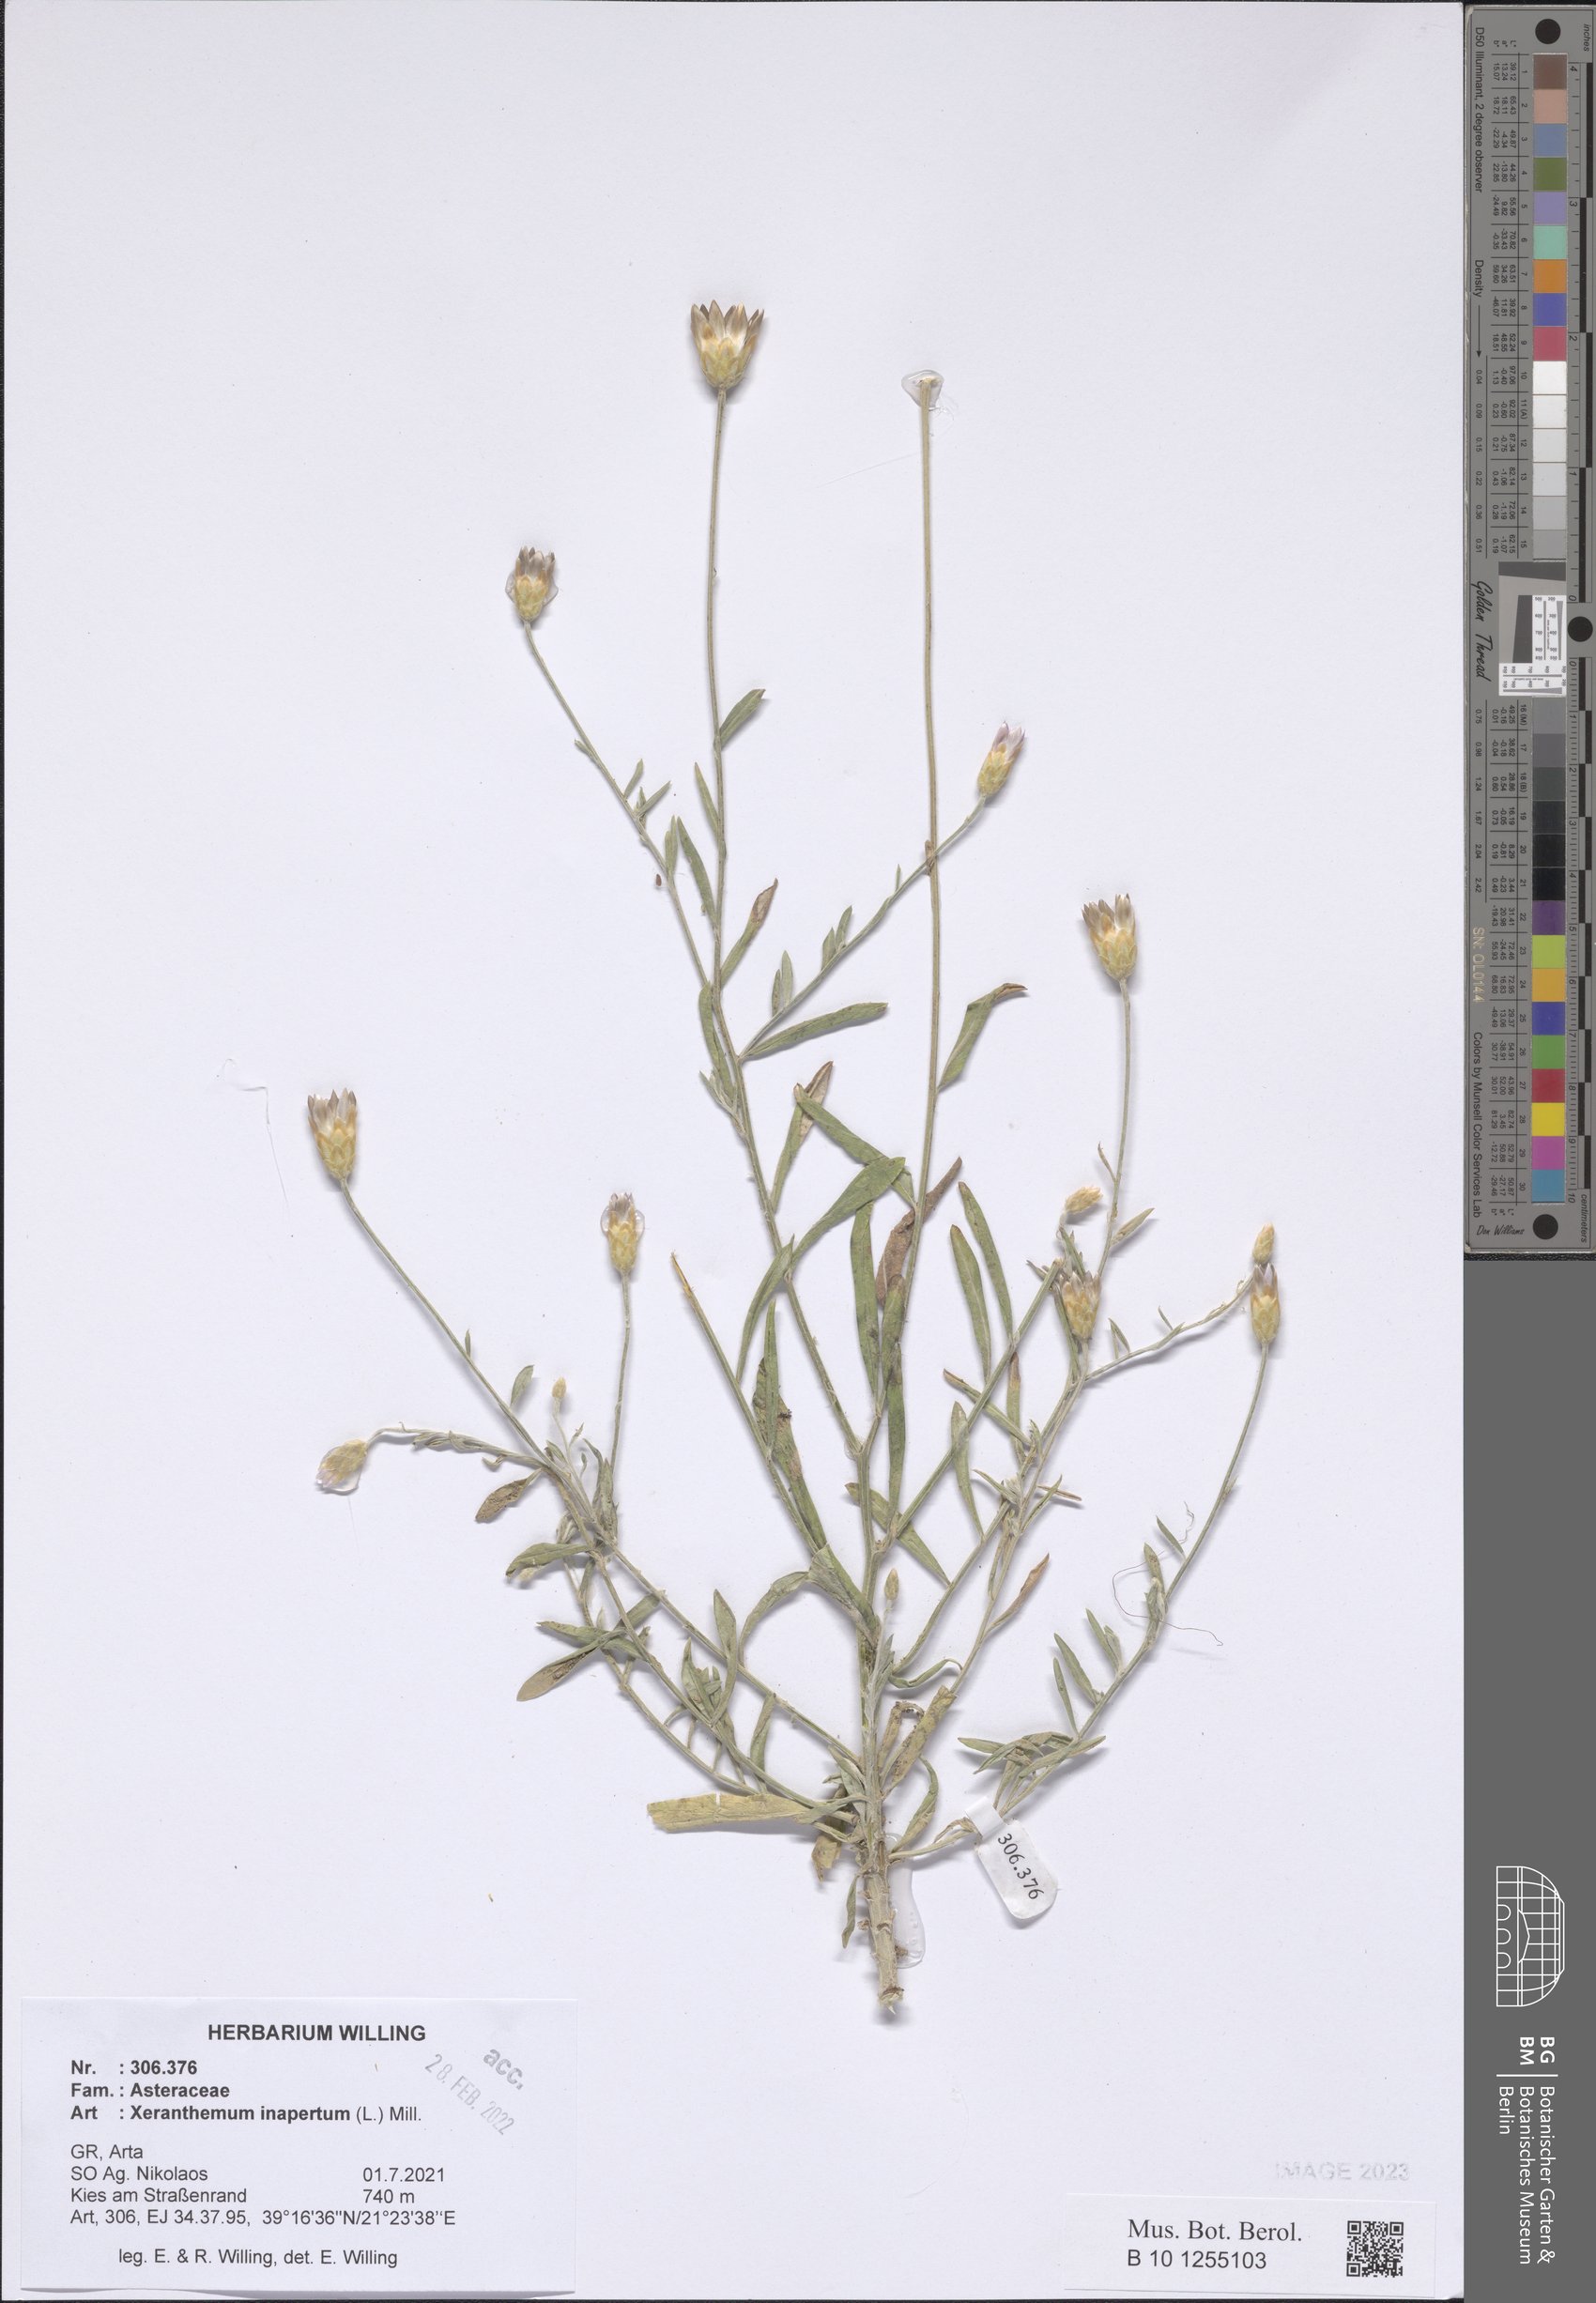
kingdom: Plantae
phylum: Tracheophyta
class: Magnoliopsida
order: Asterales
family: Asteraceae
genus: Xeranthemum
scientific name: Xeranthemum inapertum
